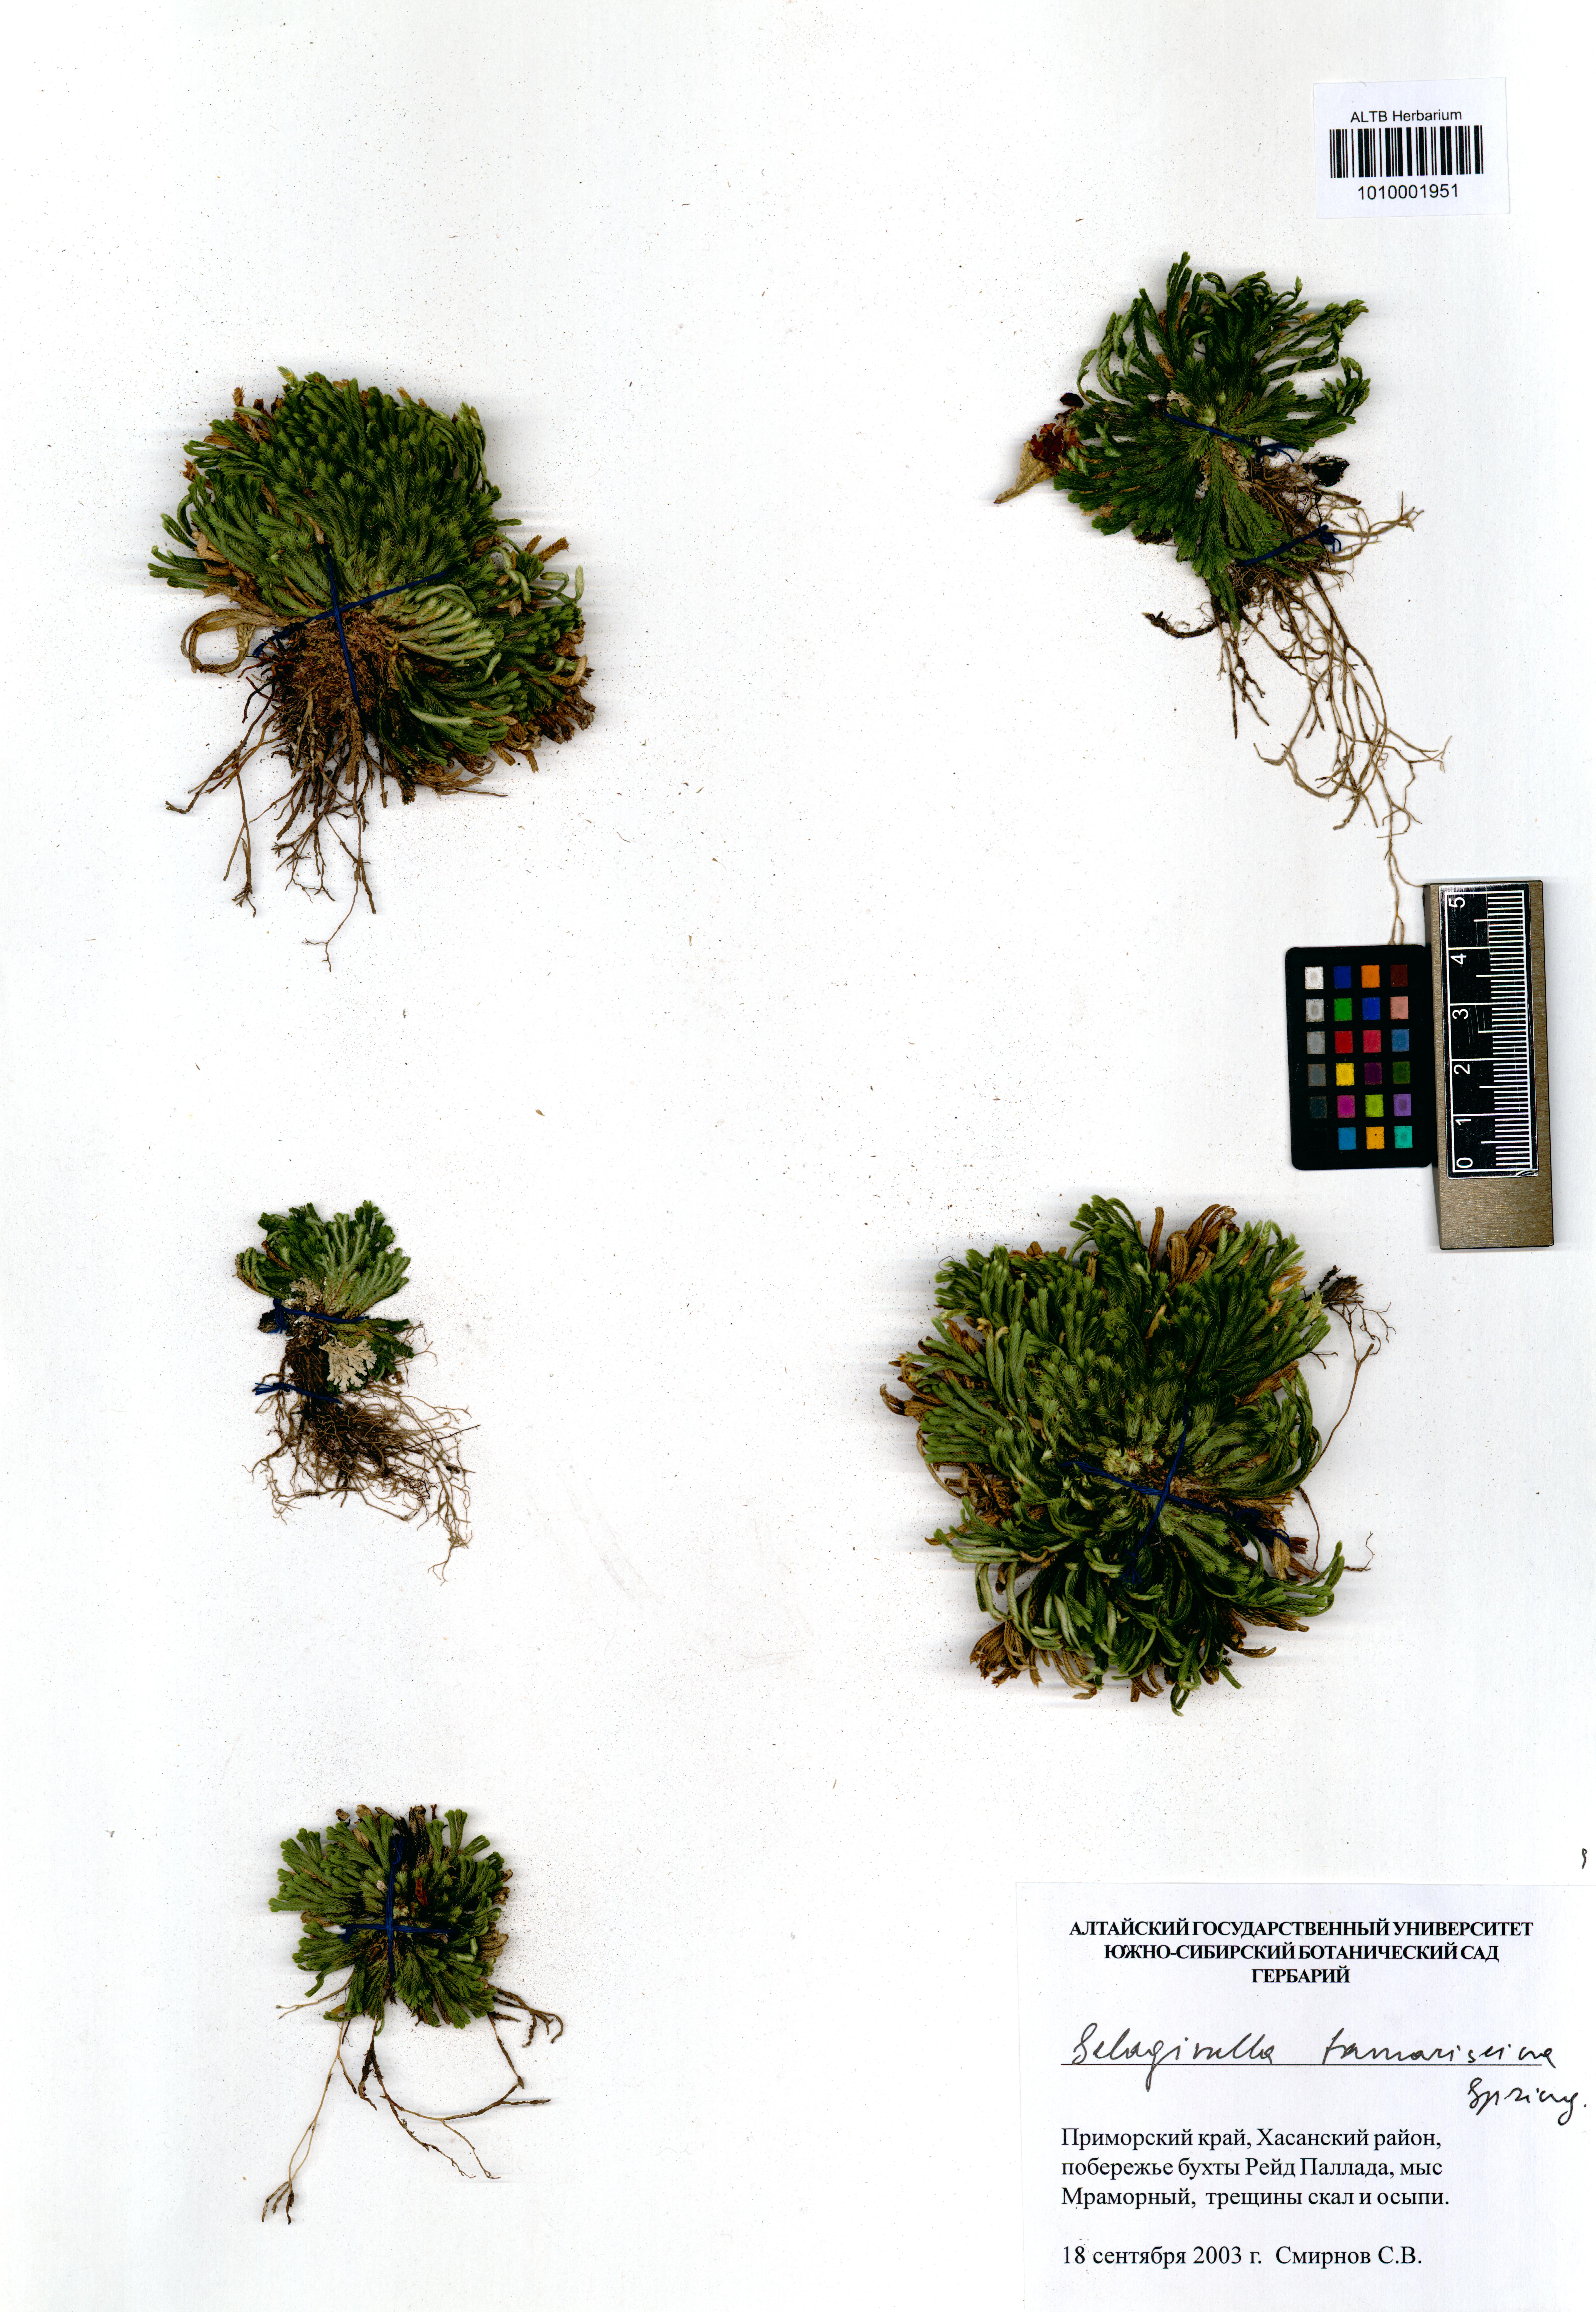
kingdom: Plantae
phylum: Tracheophyta
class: Lycopodiopsida
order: Selaginellales
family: Selaginellaceae
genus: Selaginella
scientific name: Selaginella tamariscina
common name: Little-club-moss
